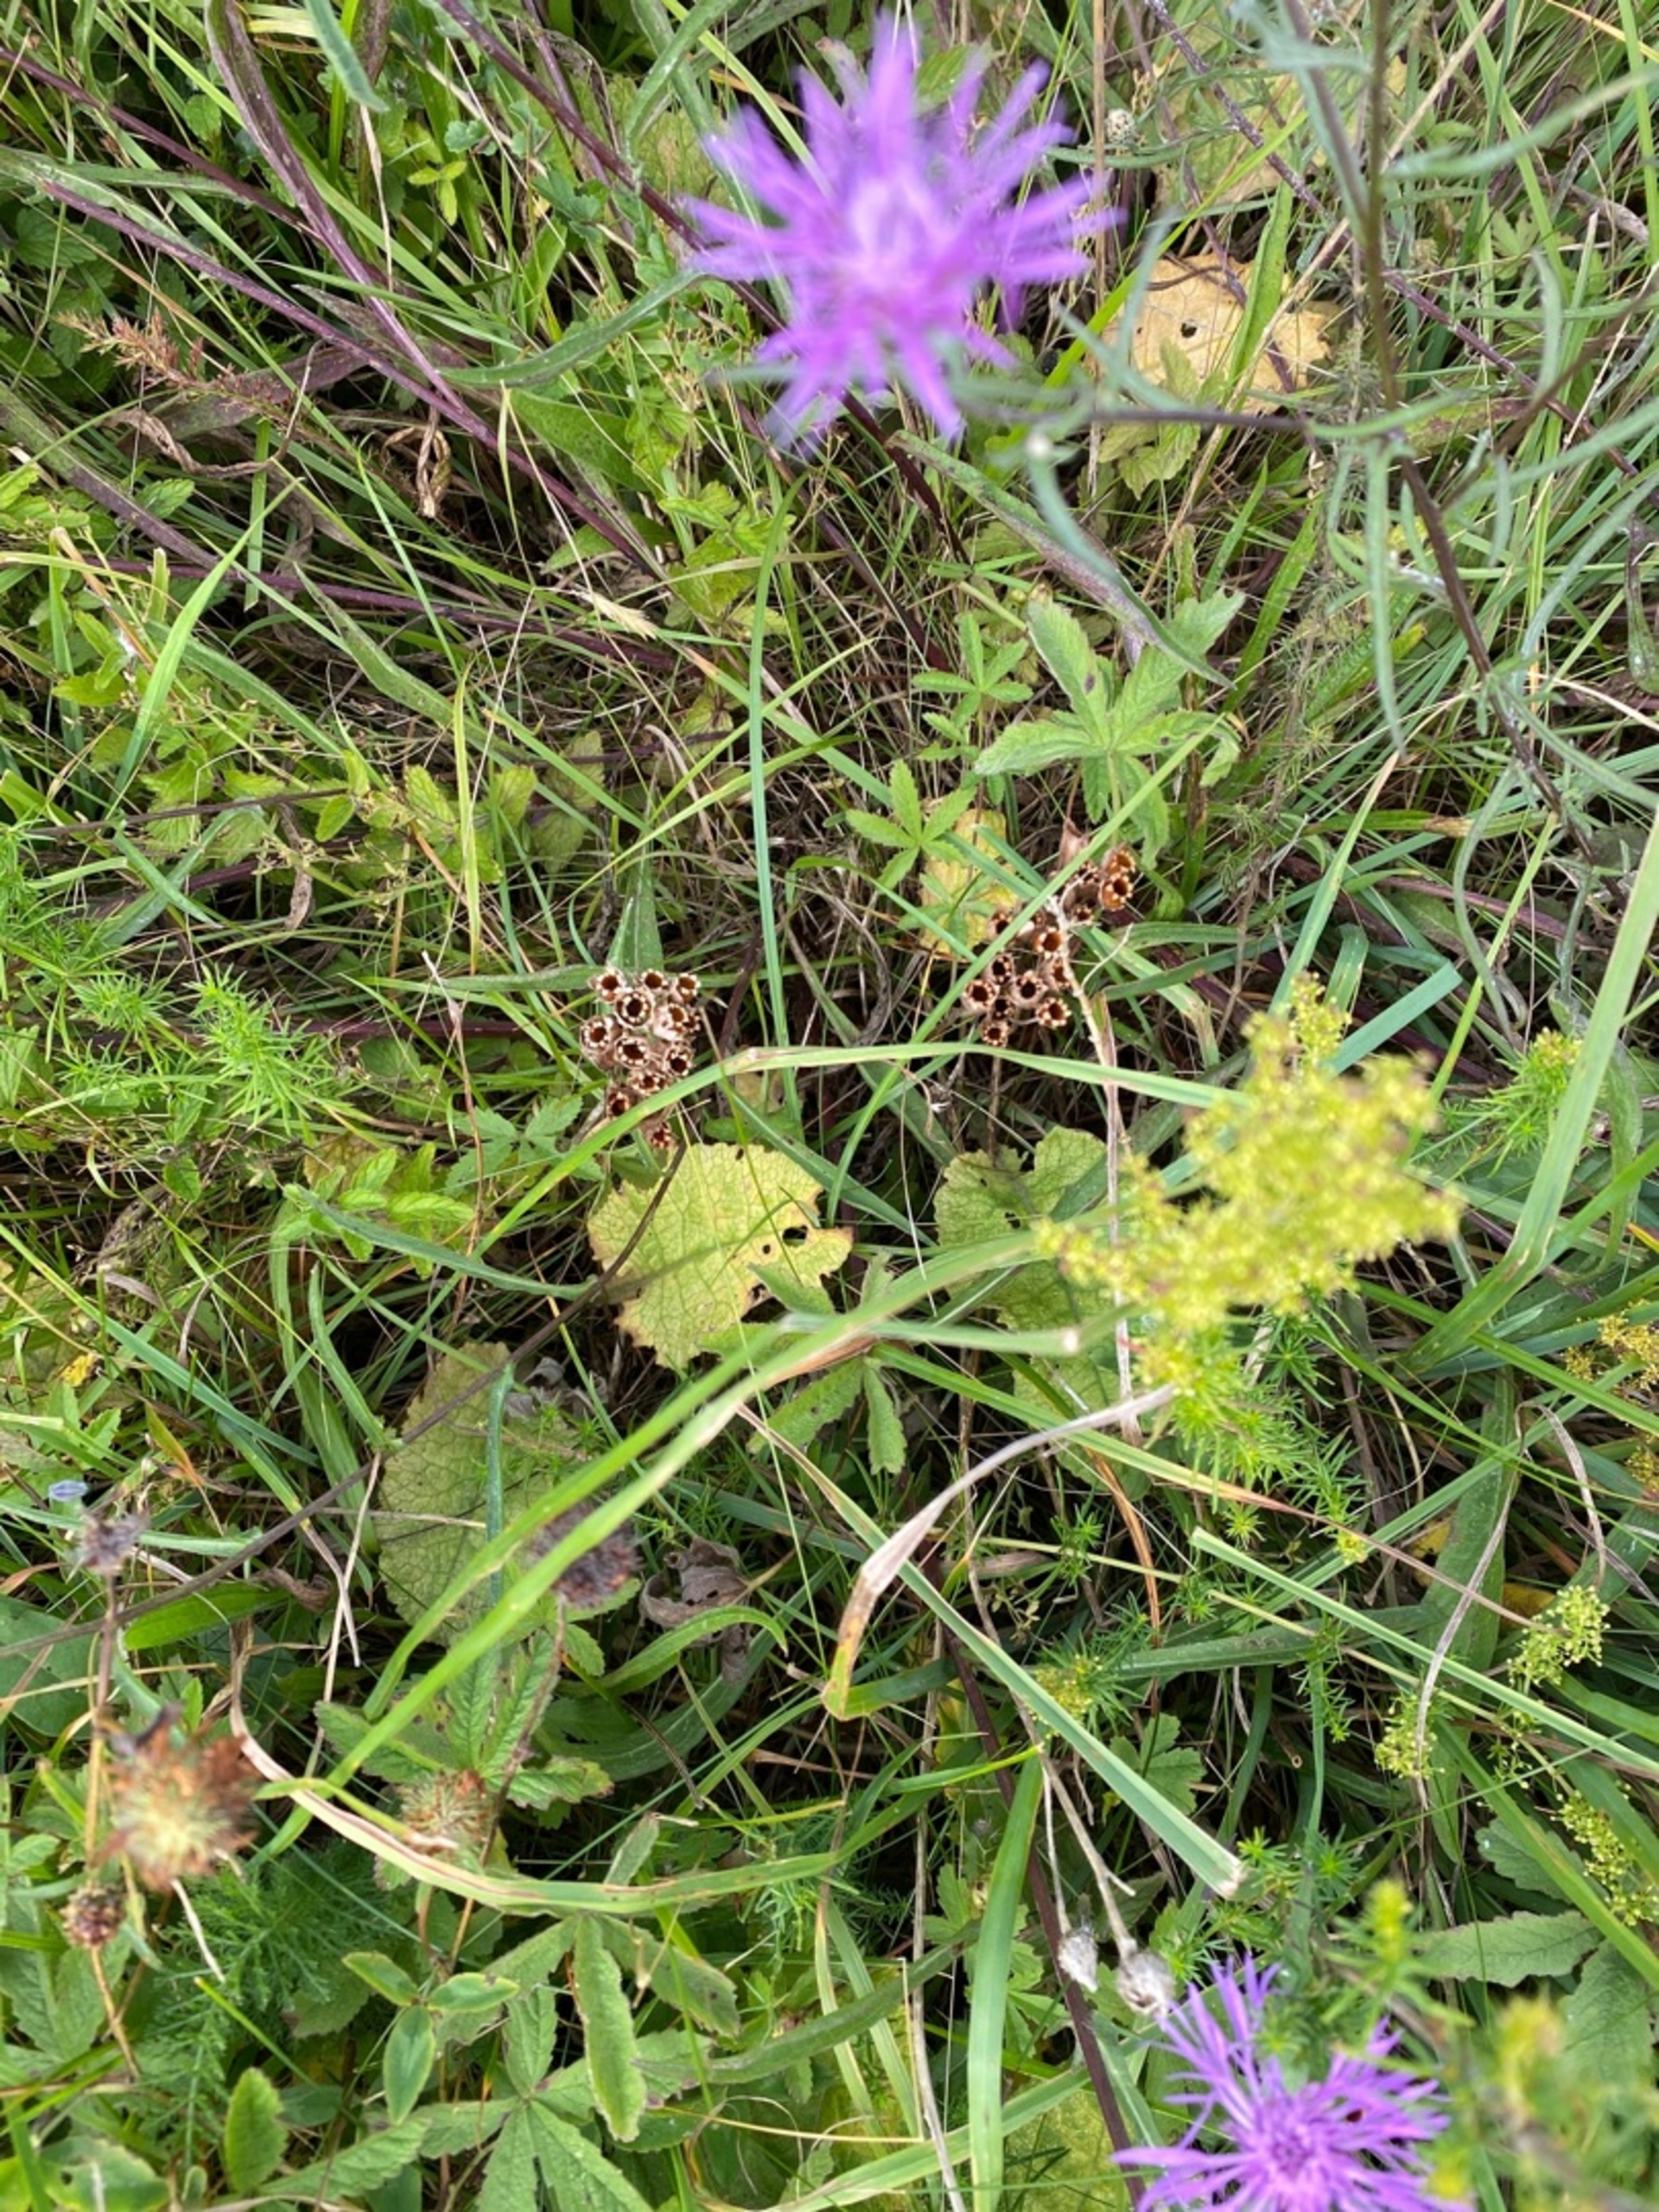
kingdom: Plantae
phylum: Tracheophyta
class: Magnoliopsida
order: Ericales
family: Primulaceae
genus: Primula
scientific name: Primula veris
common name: Hulkravet kodriver
